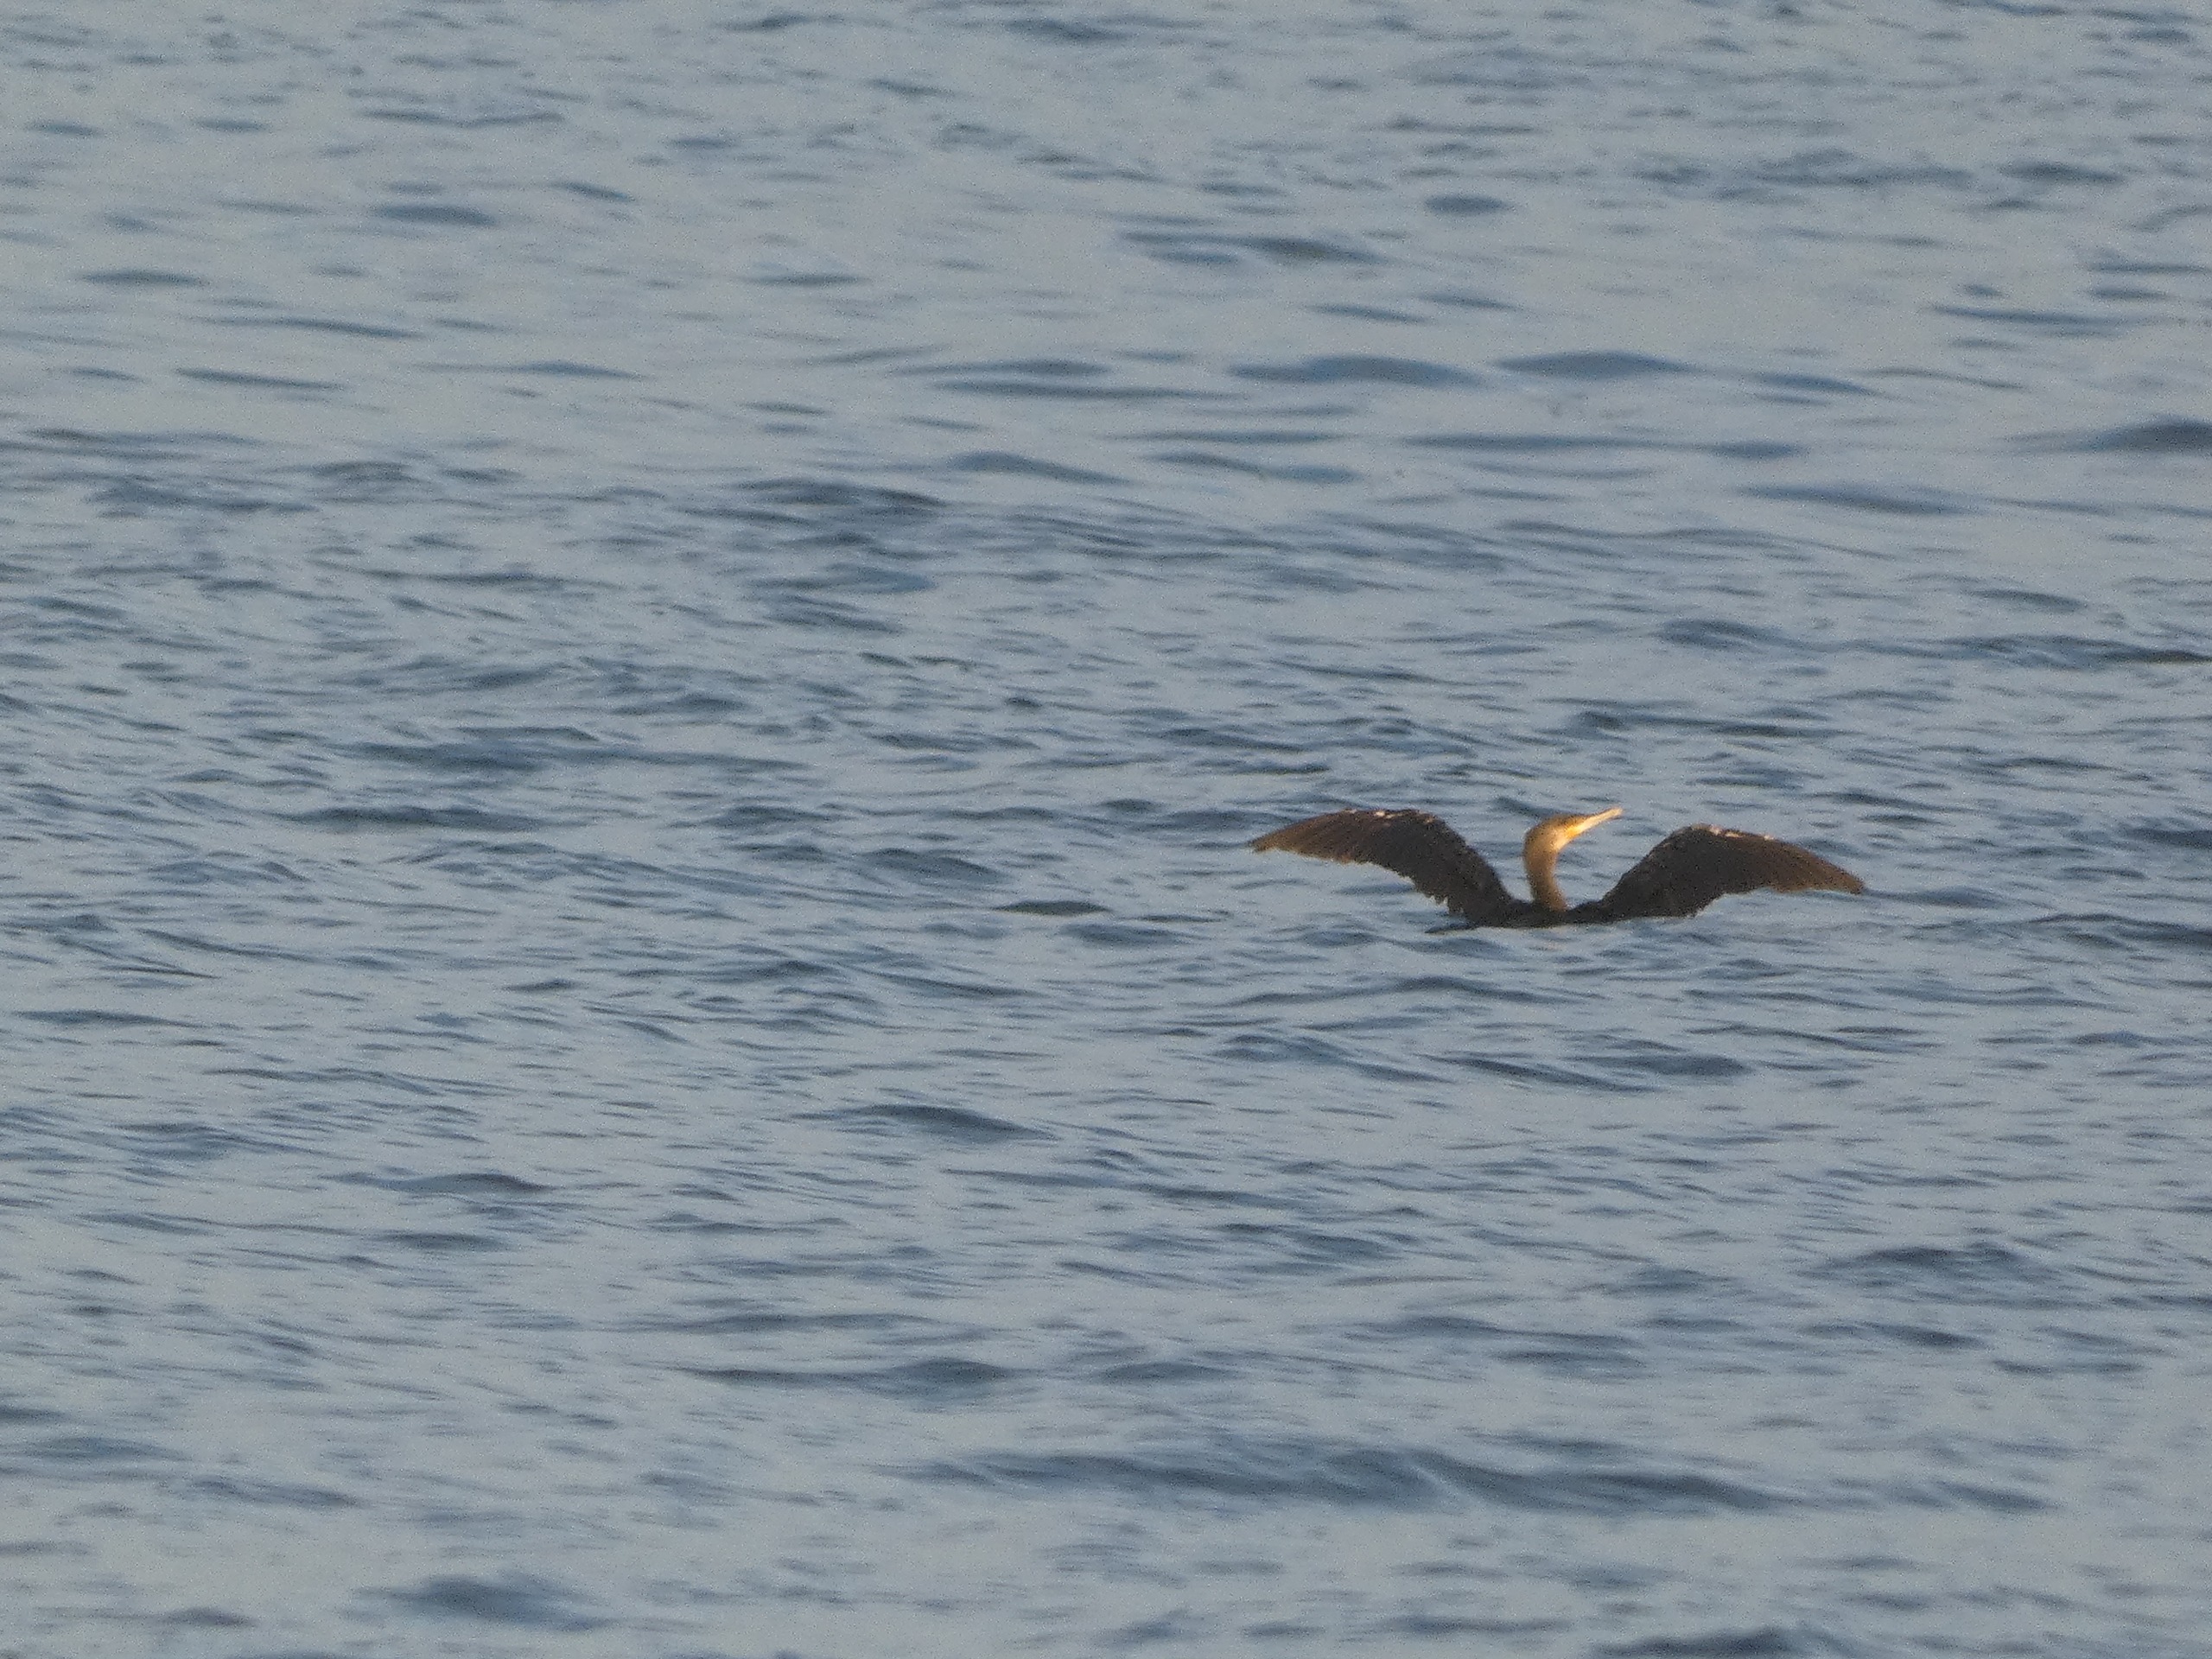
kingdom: Animalia
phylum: Chordata
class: Aves
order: Suliformes
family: Phalacrocoracidae
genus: Phalacrocorax
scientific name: Phalacrocorax carbo
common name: Skarv
